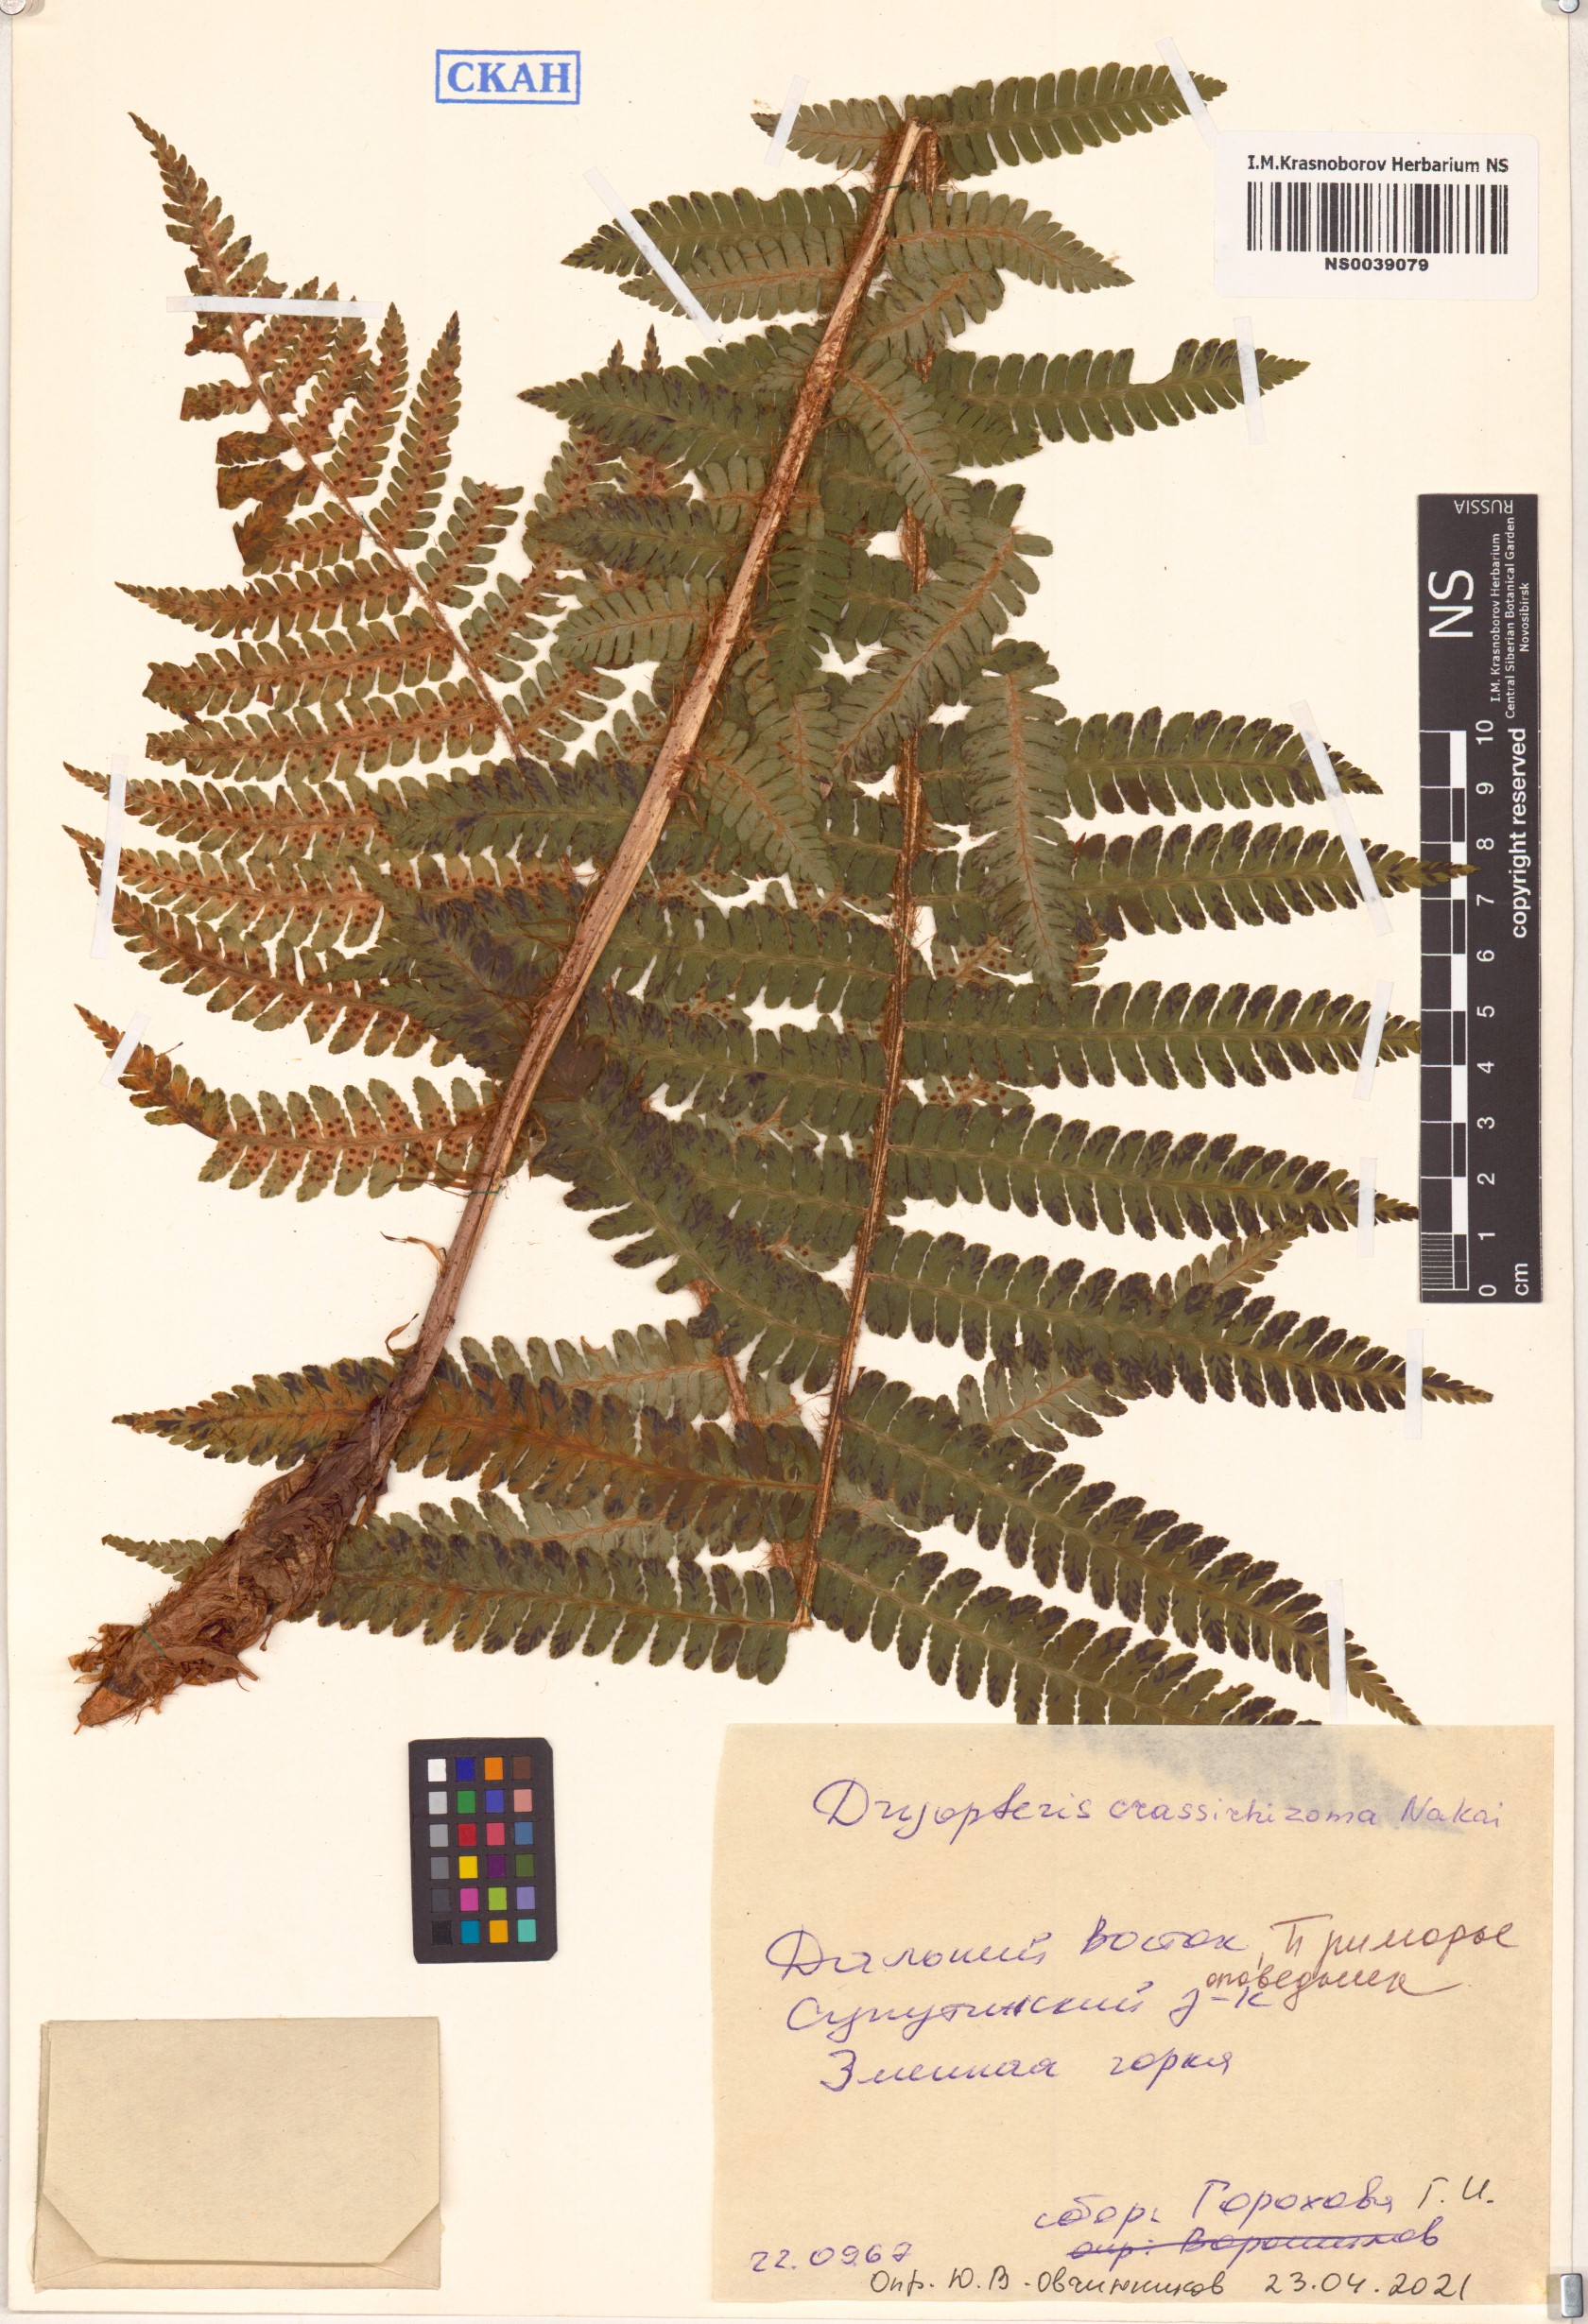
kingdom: Plantae
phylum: Tracheophyta
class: Polypodiopsida
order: Polypodiales
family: Dryopteridaceae
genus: Dryopteris
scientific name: Dryopteris crassirhizoma
